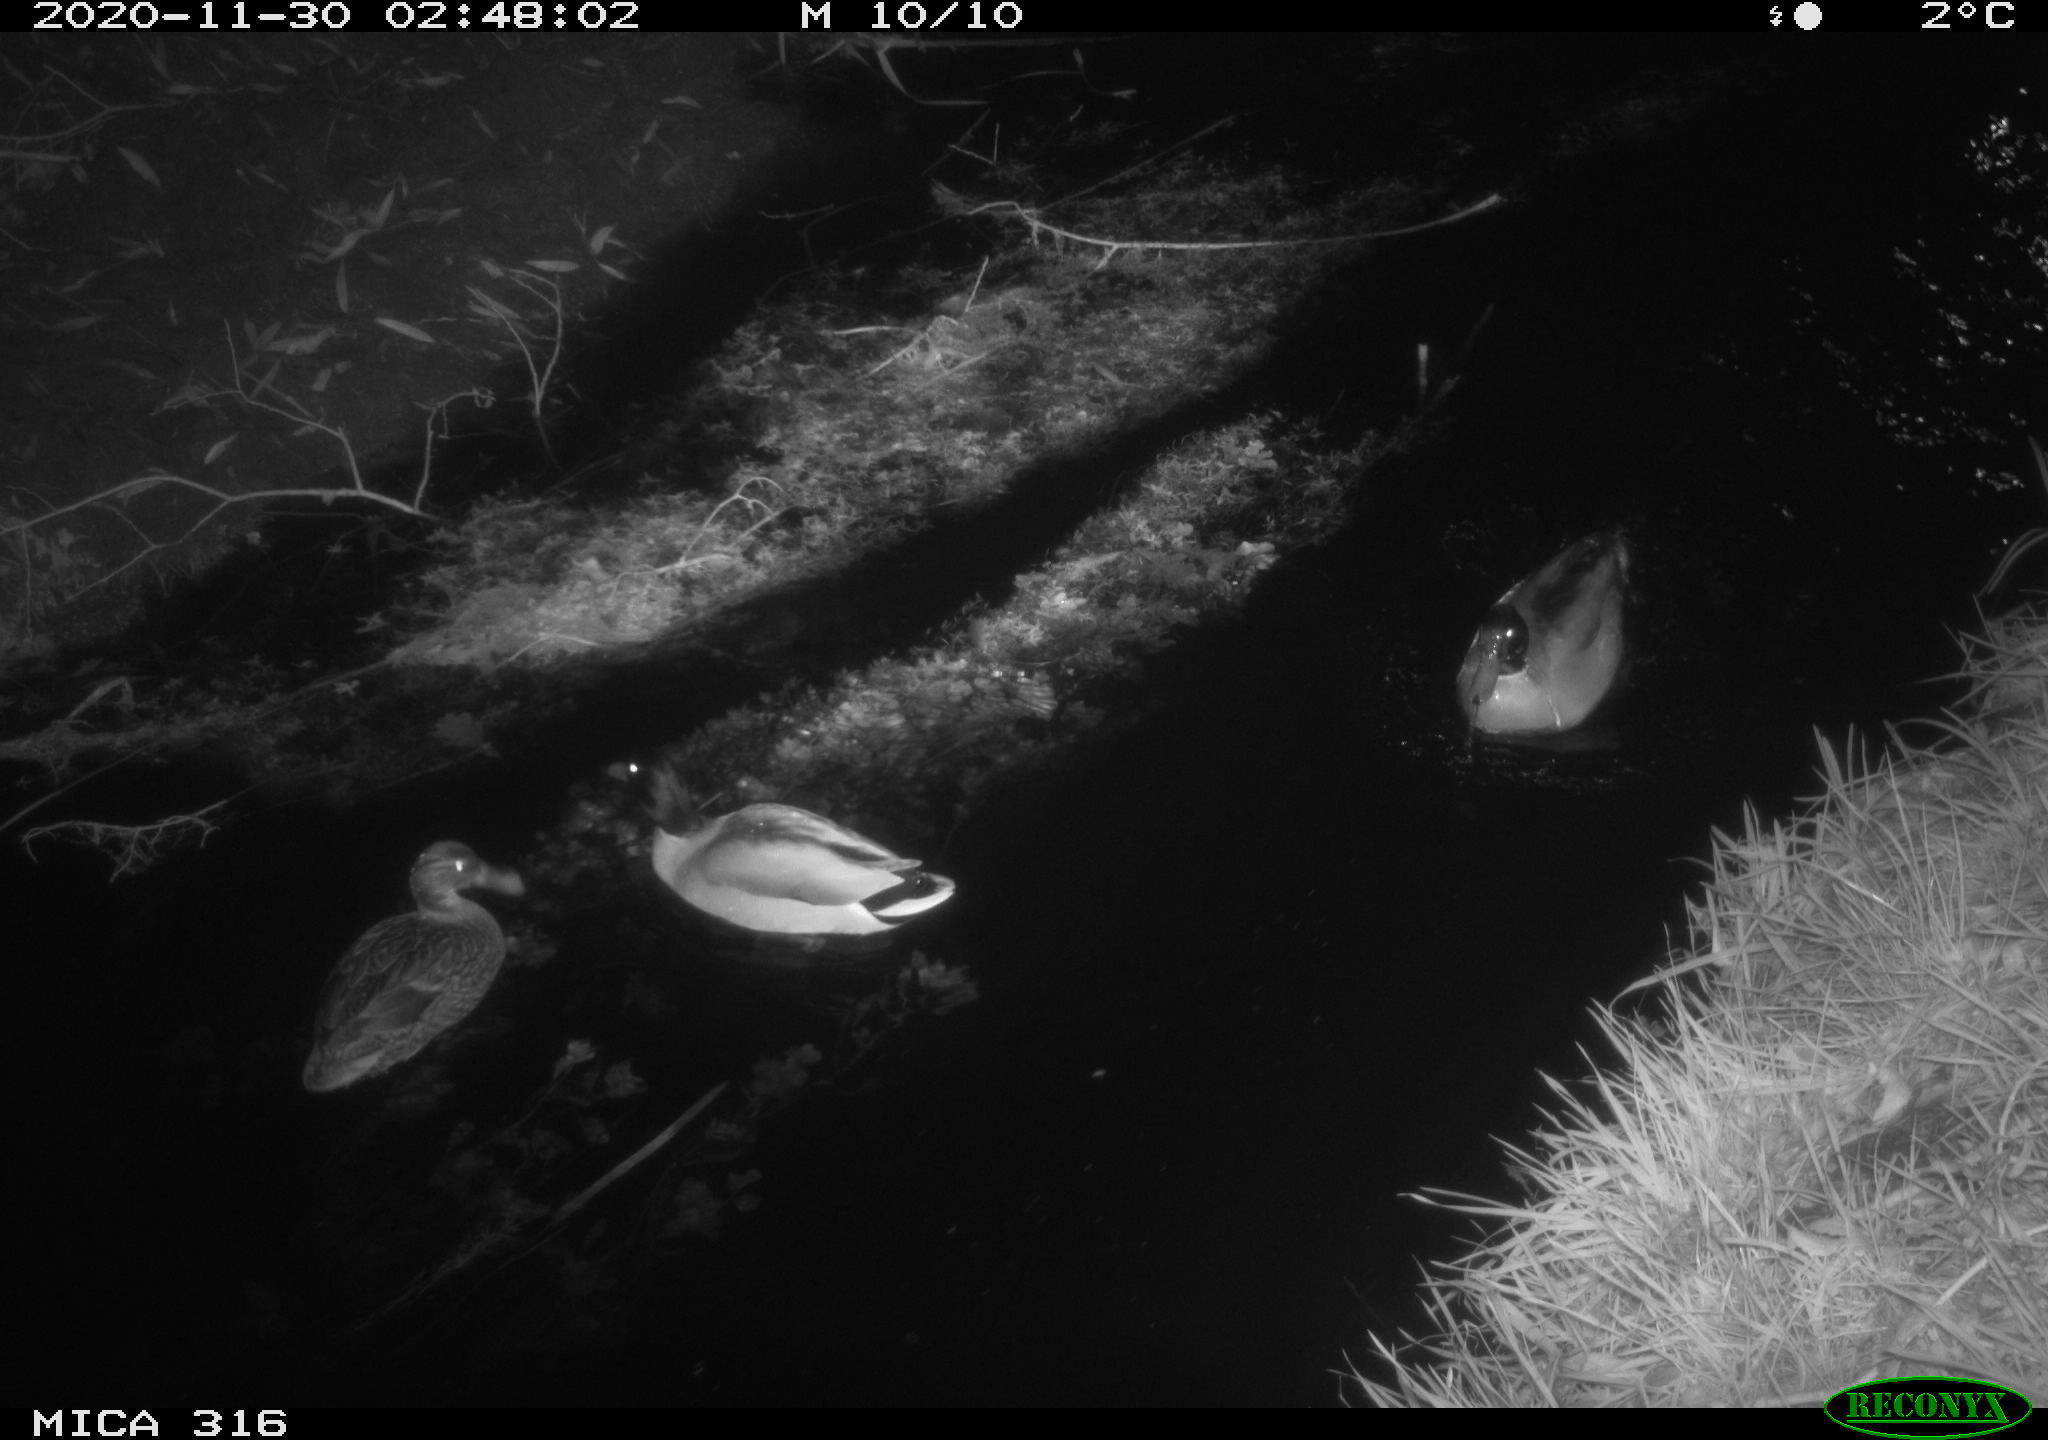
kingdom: Animalia
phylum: Chordata
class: Aves
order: Anseriformes
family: Anatidae
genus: Anas
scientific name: Anas platyrhynchos
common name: Mallard
